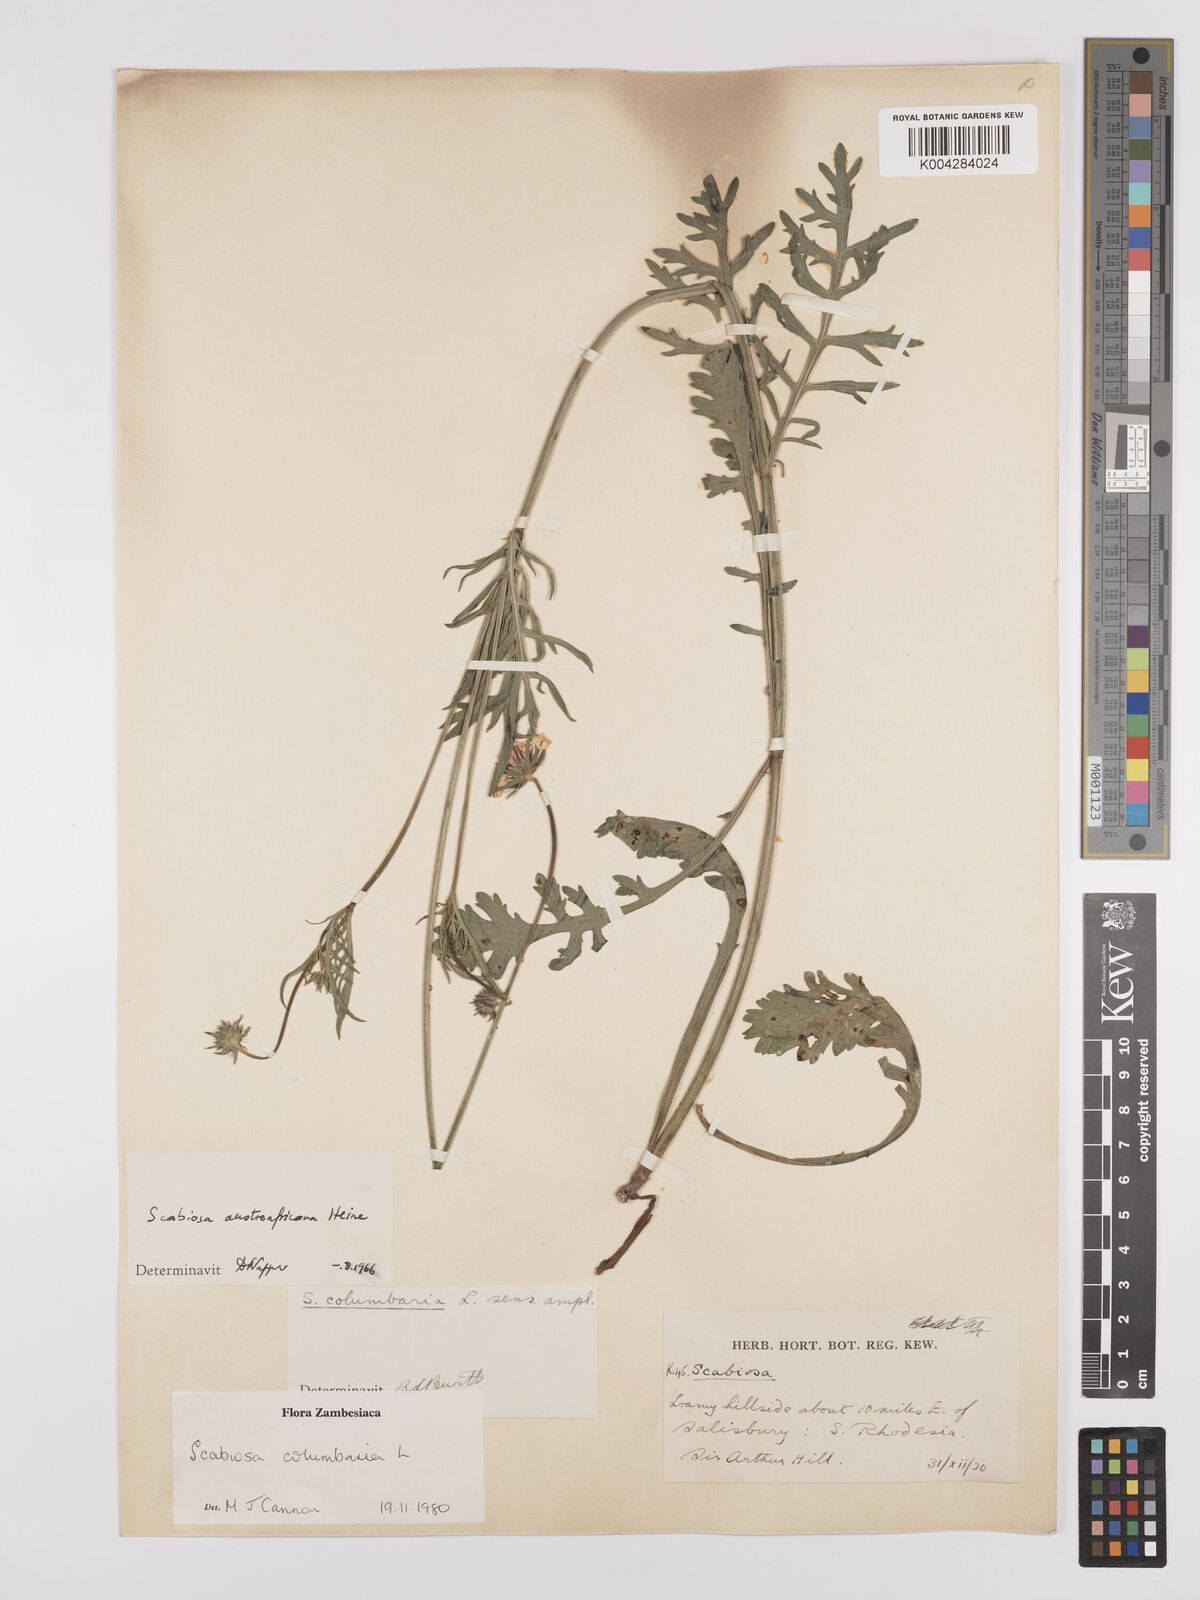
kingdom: Plantae
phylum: Tracheophyta
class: Magnoliopsida
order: Dipsacales
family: Caprifoliaceae
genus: Scabiosa
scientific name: Scabiosa austroafricana
